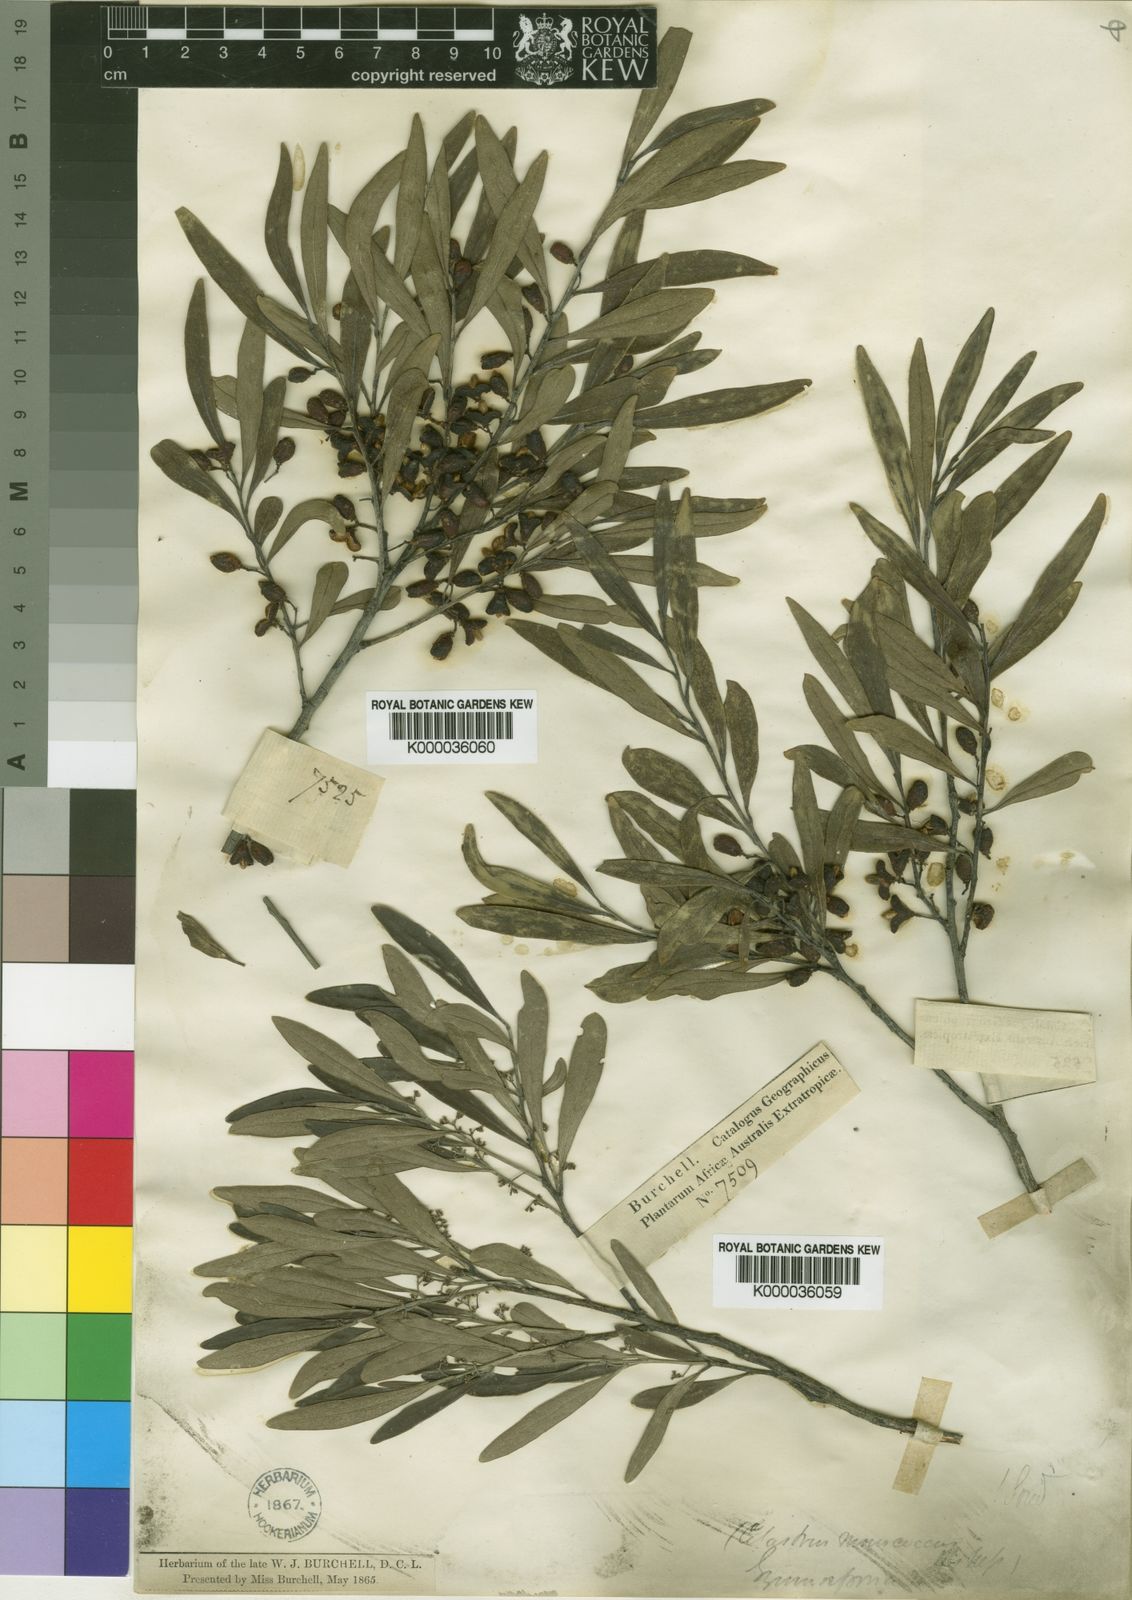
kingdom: Plantae
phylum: Tracheophyta
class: Magnoliopsida
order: Celastrales
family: Celastraceae
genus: Gymnosporia
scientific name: Gymnosporia oleosa
